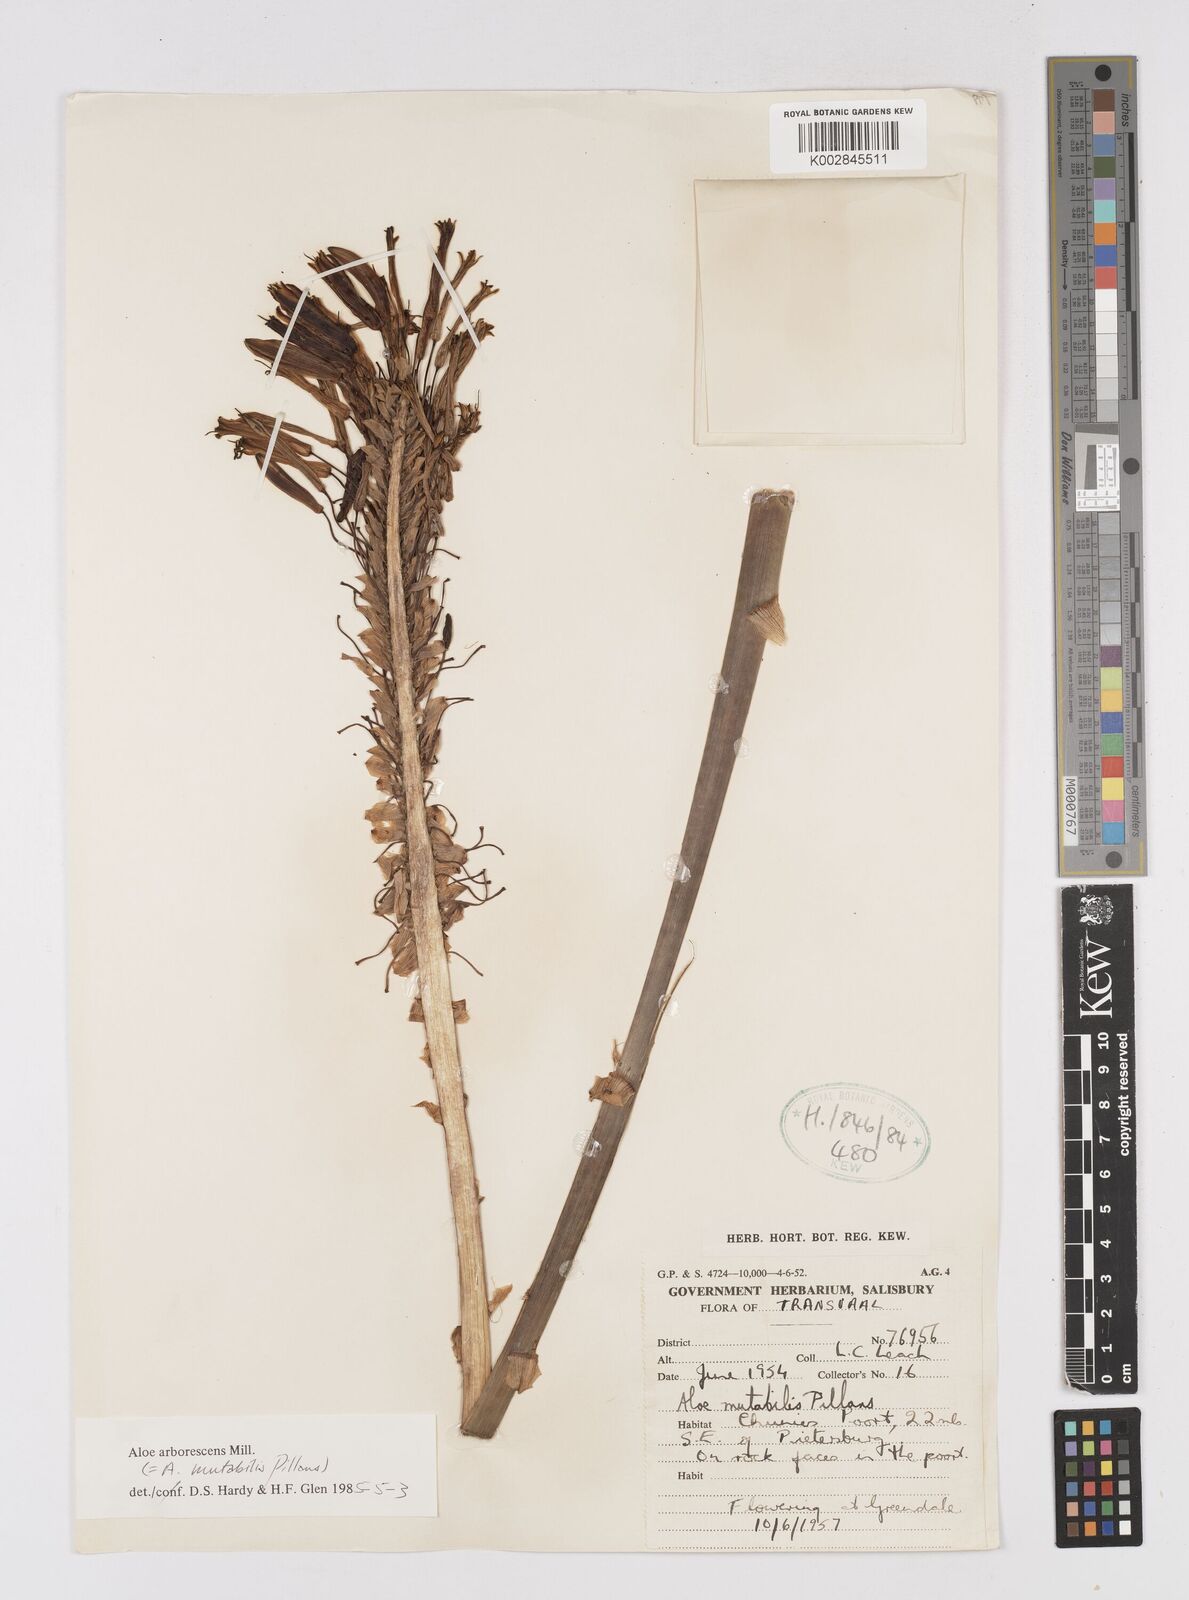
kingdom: Plantae
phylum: Tracheophyta
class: Liliopsida
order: Asparagales
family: Asphodelaceae
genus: Aloe
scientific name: Aloe arborescens
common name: Candelabra aloe
